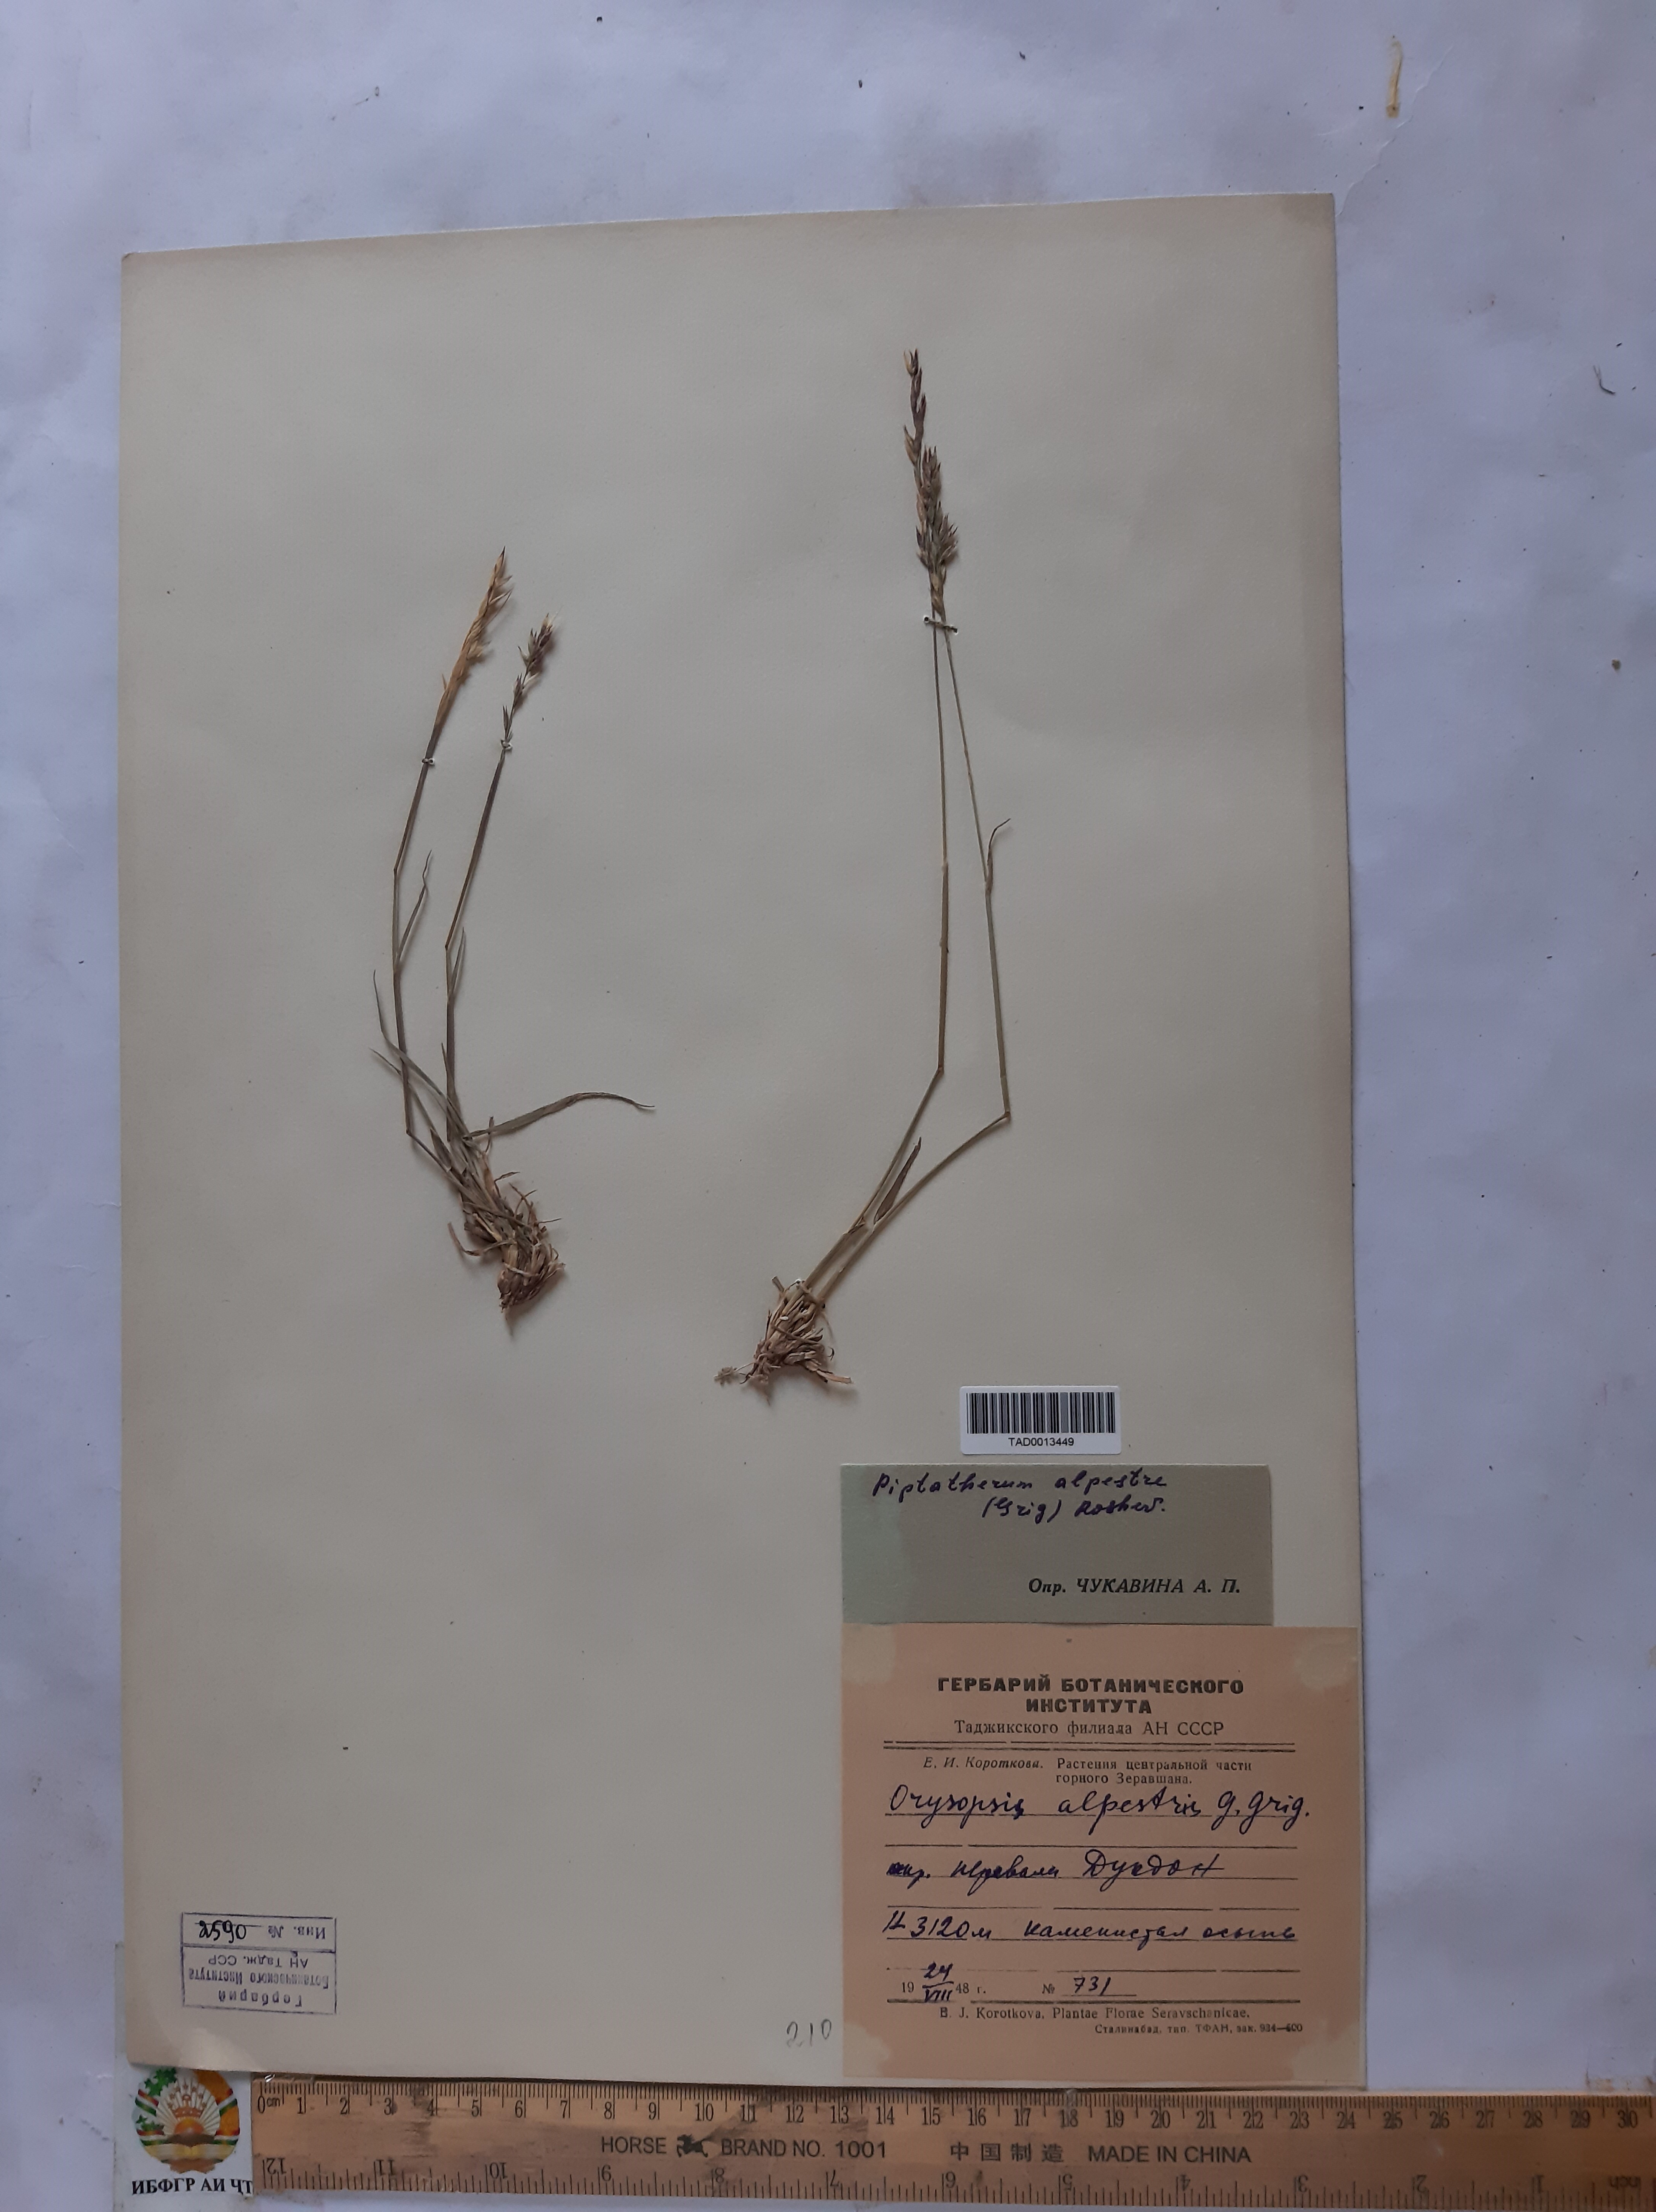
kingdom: Plantae
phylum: Tracheophyta
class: Liliopsida
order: Poales
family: Poaceae
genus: Piptatherum
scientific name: Piptatherum alpestre
